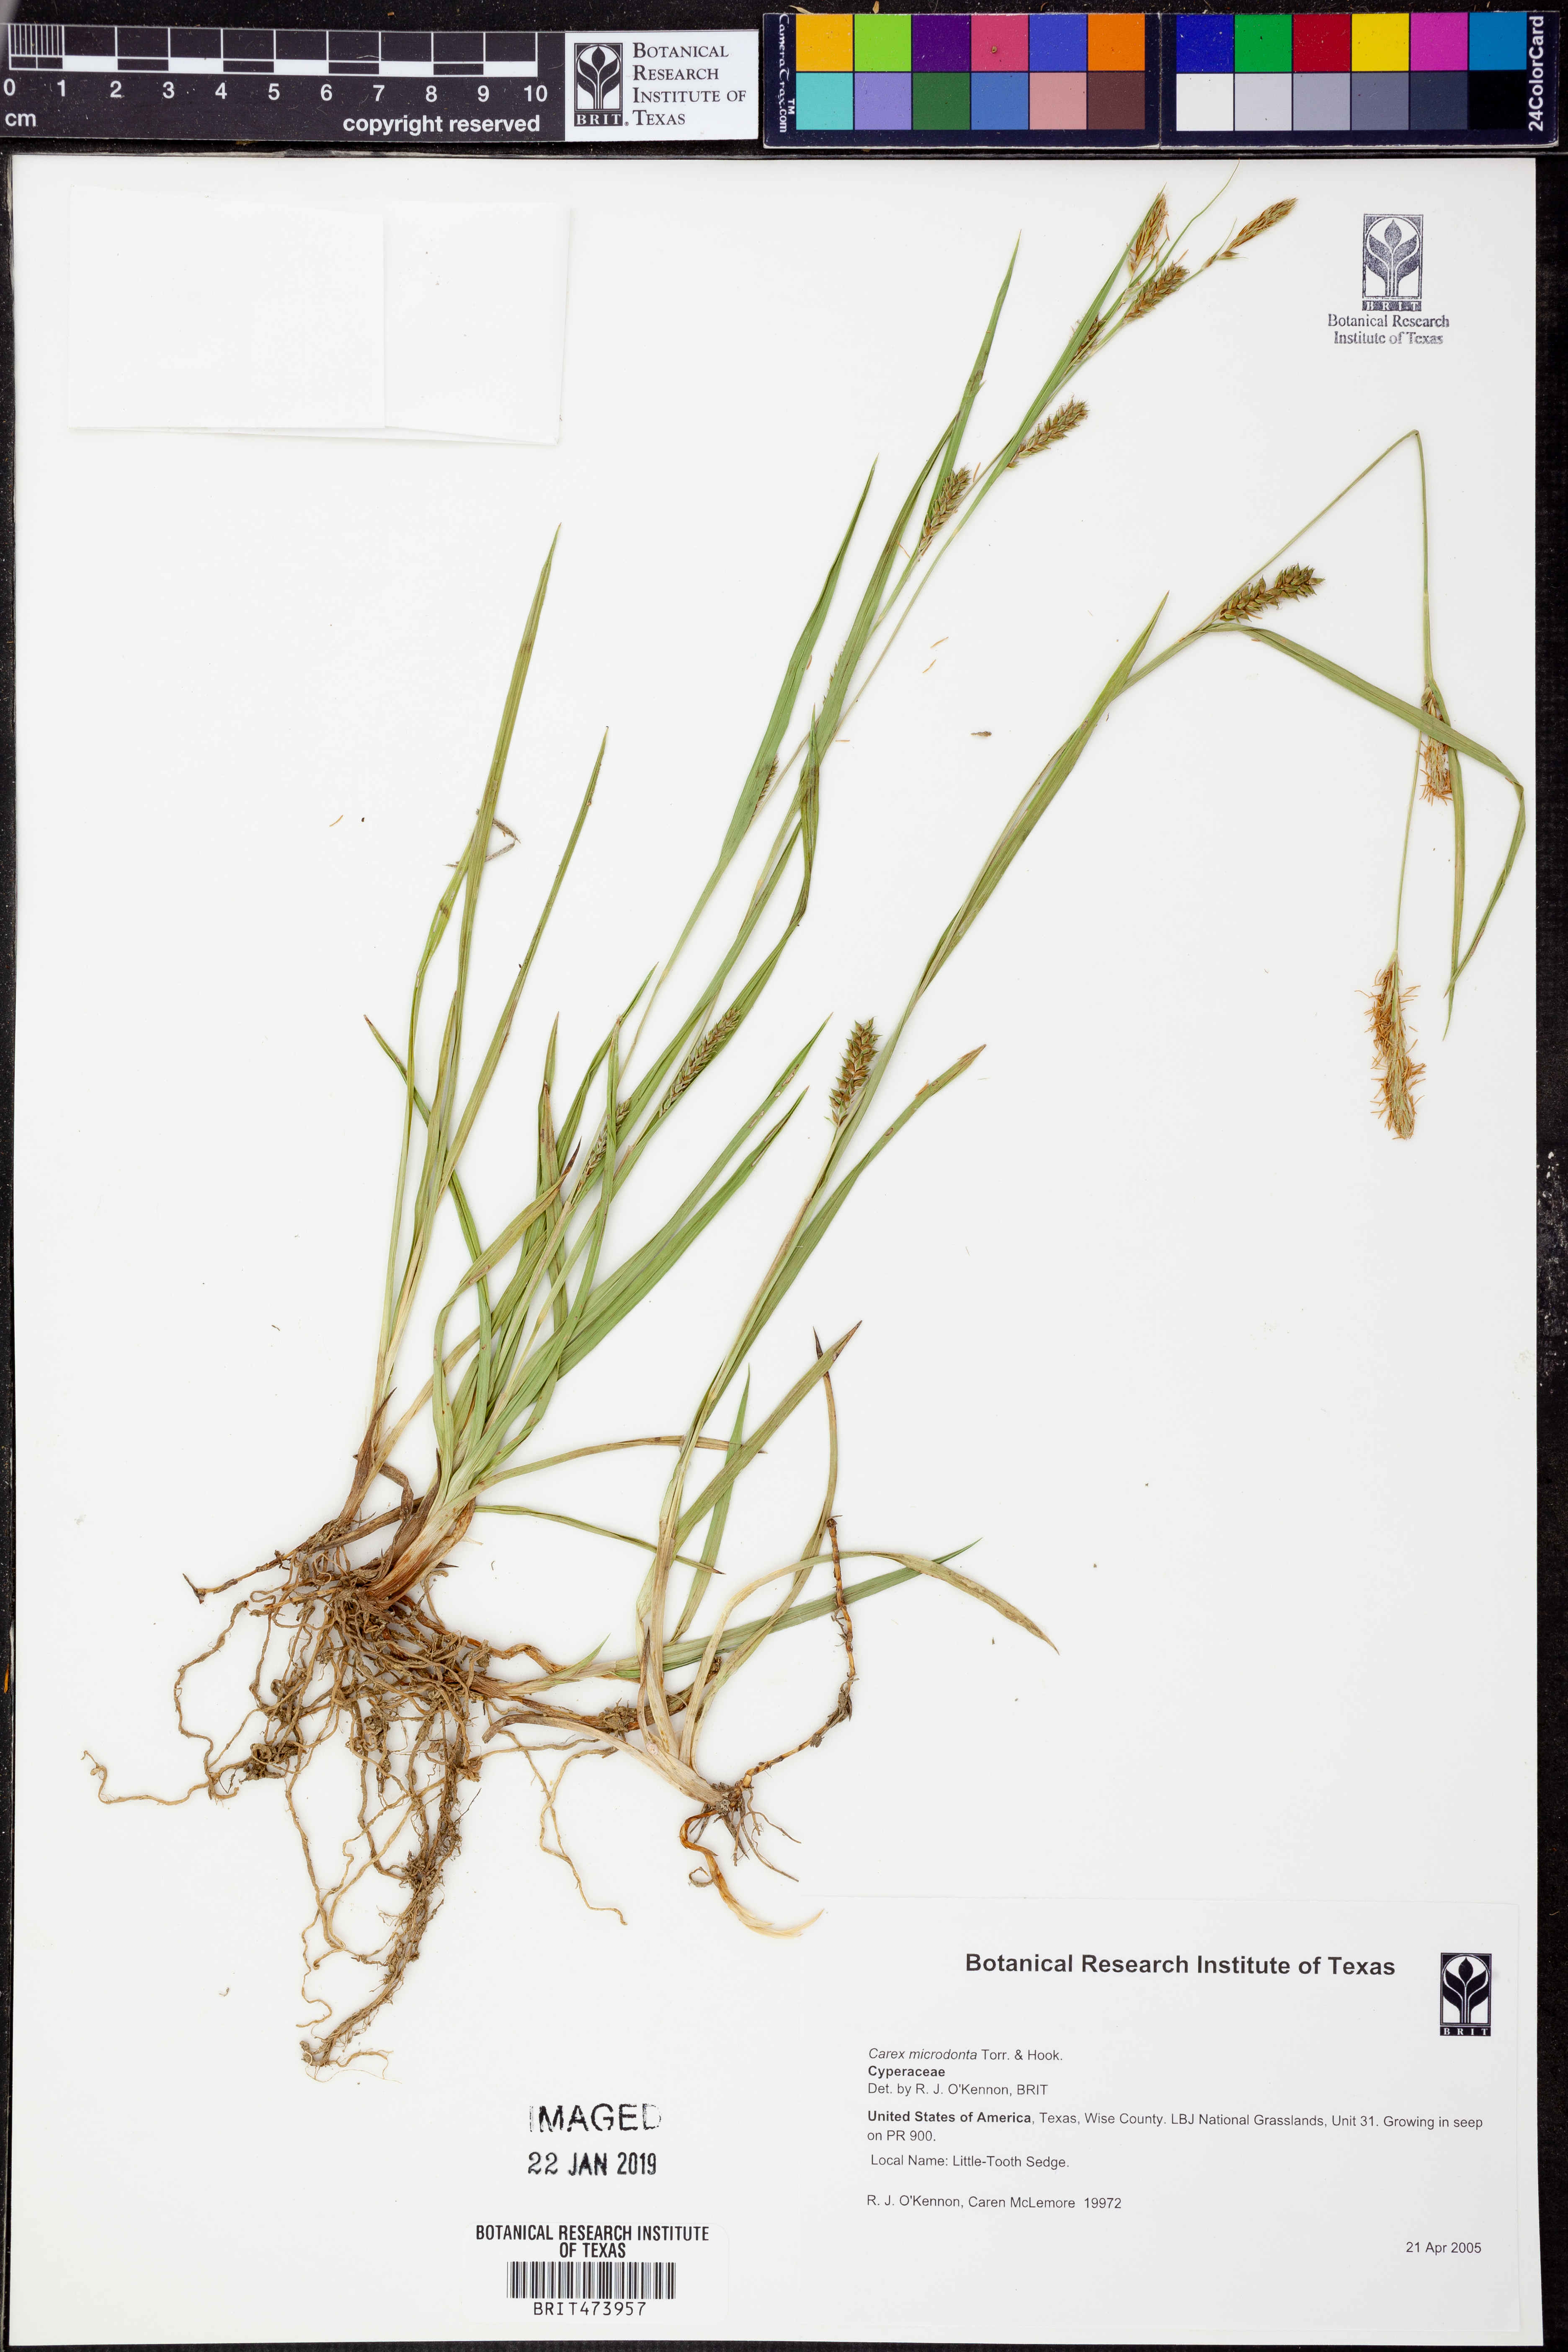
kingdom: Plantae
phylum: Tracheophyta
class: Liliopsida
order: Poales
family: Cyperaceae
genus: Carex
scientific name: Carex microdonta
